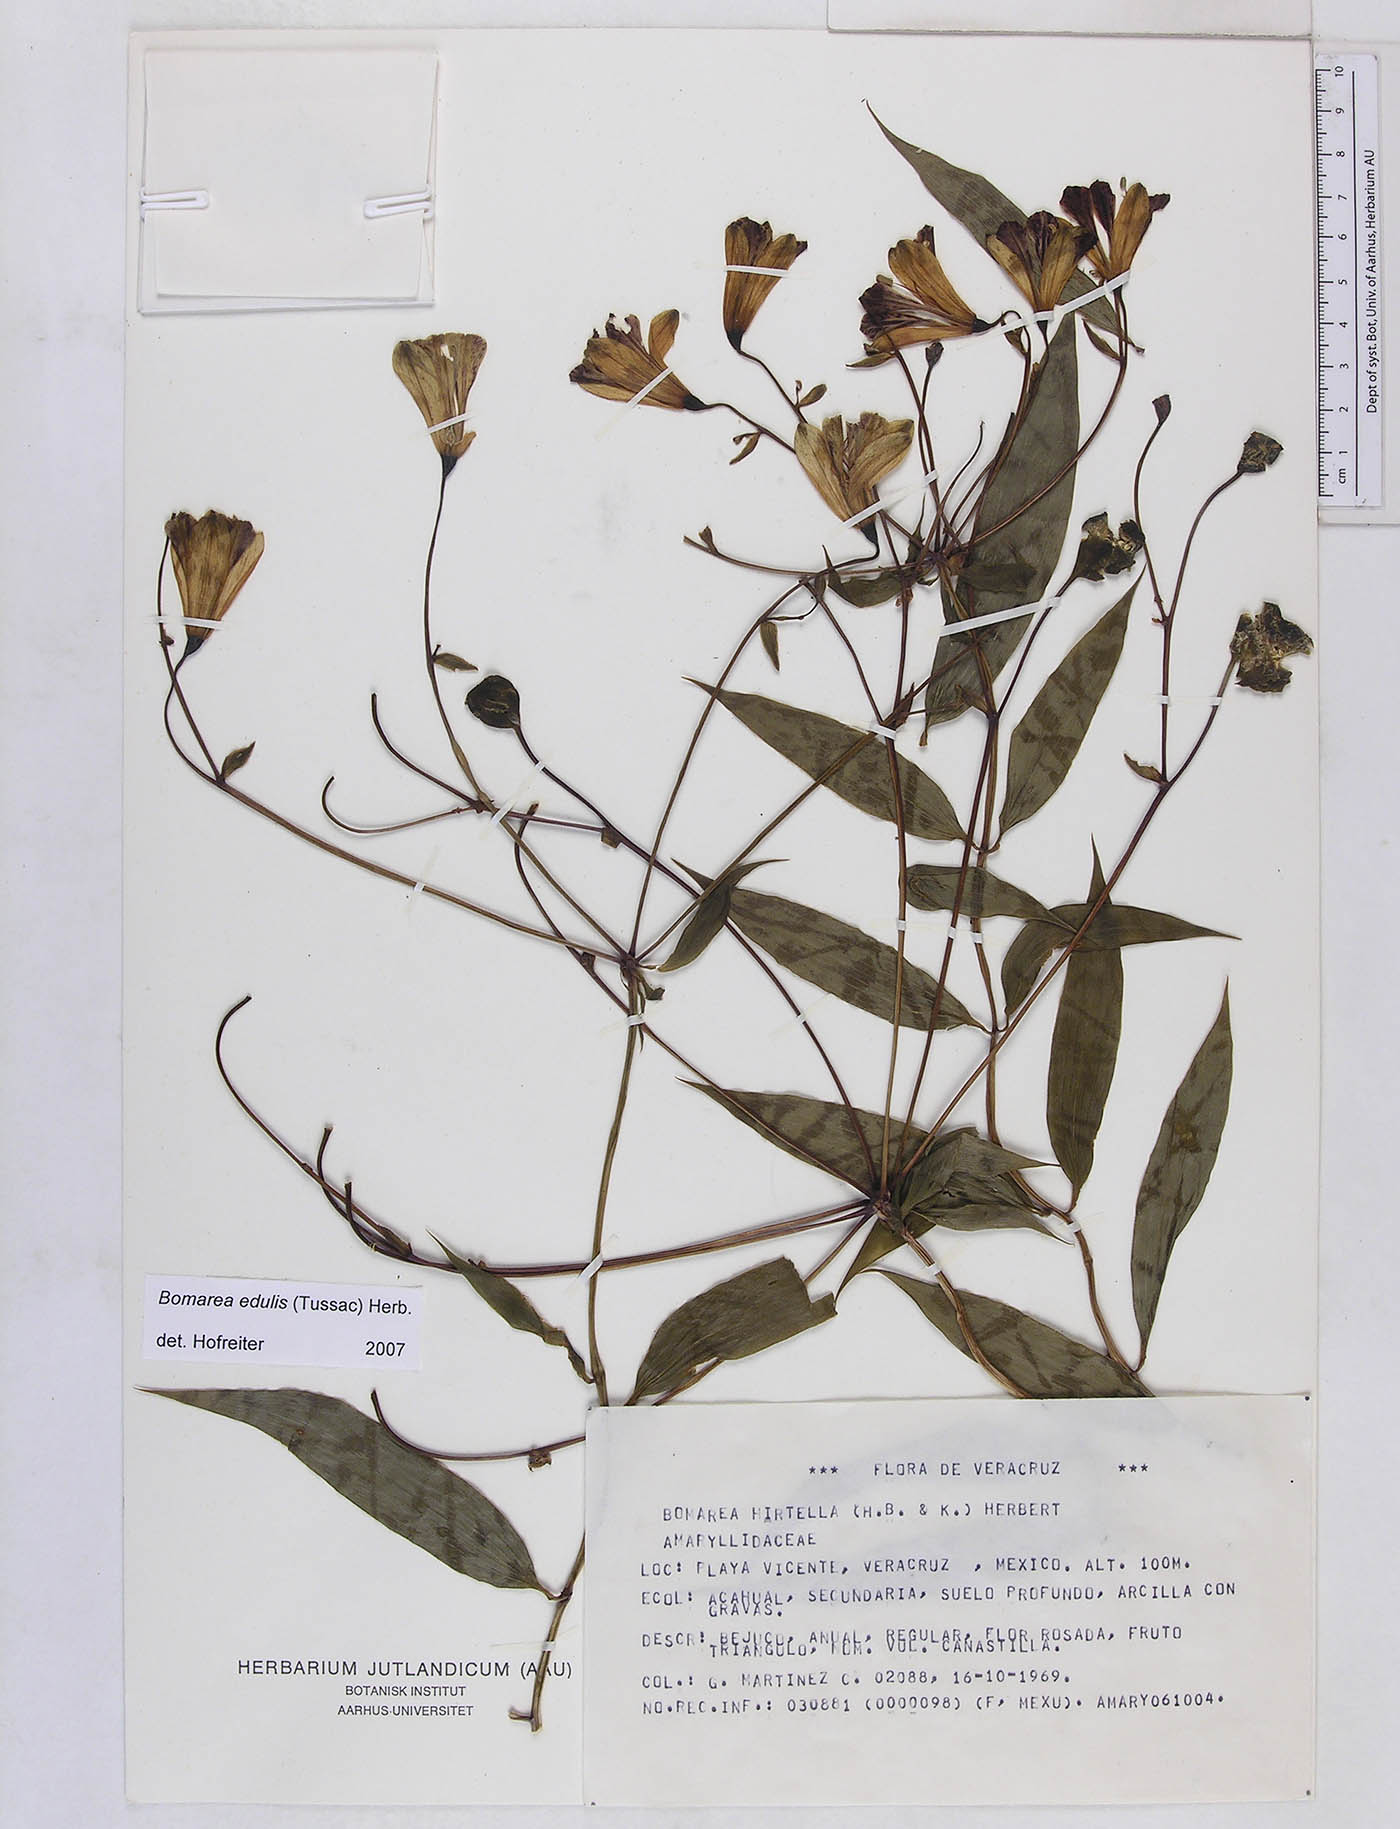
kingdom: Plantae
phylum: Tracheophyta
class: Liliopsida
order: Liliales
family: Alstroemeriaceae
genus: Bomarea
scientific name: Bomarea edulis
